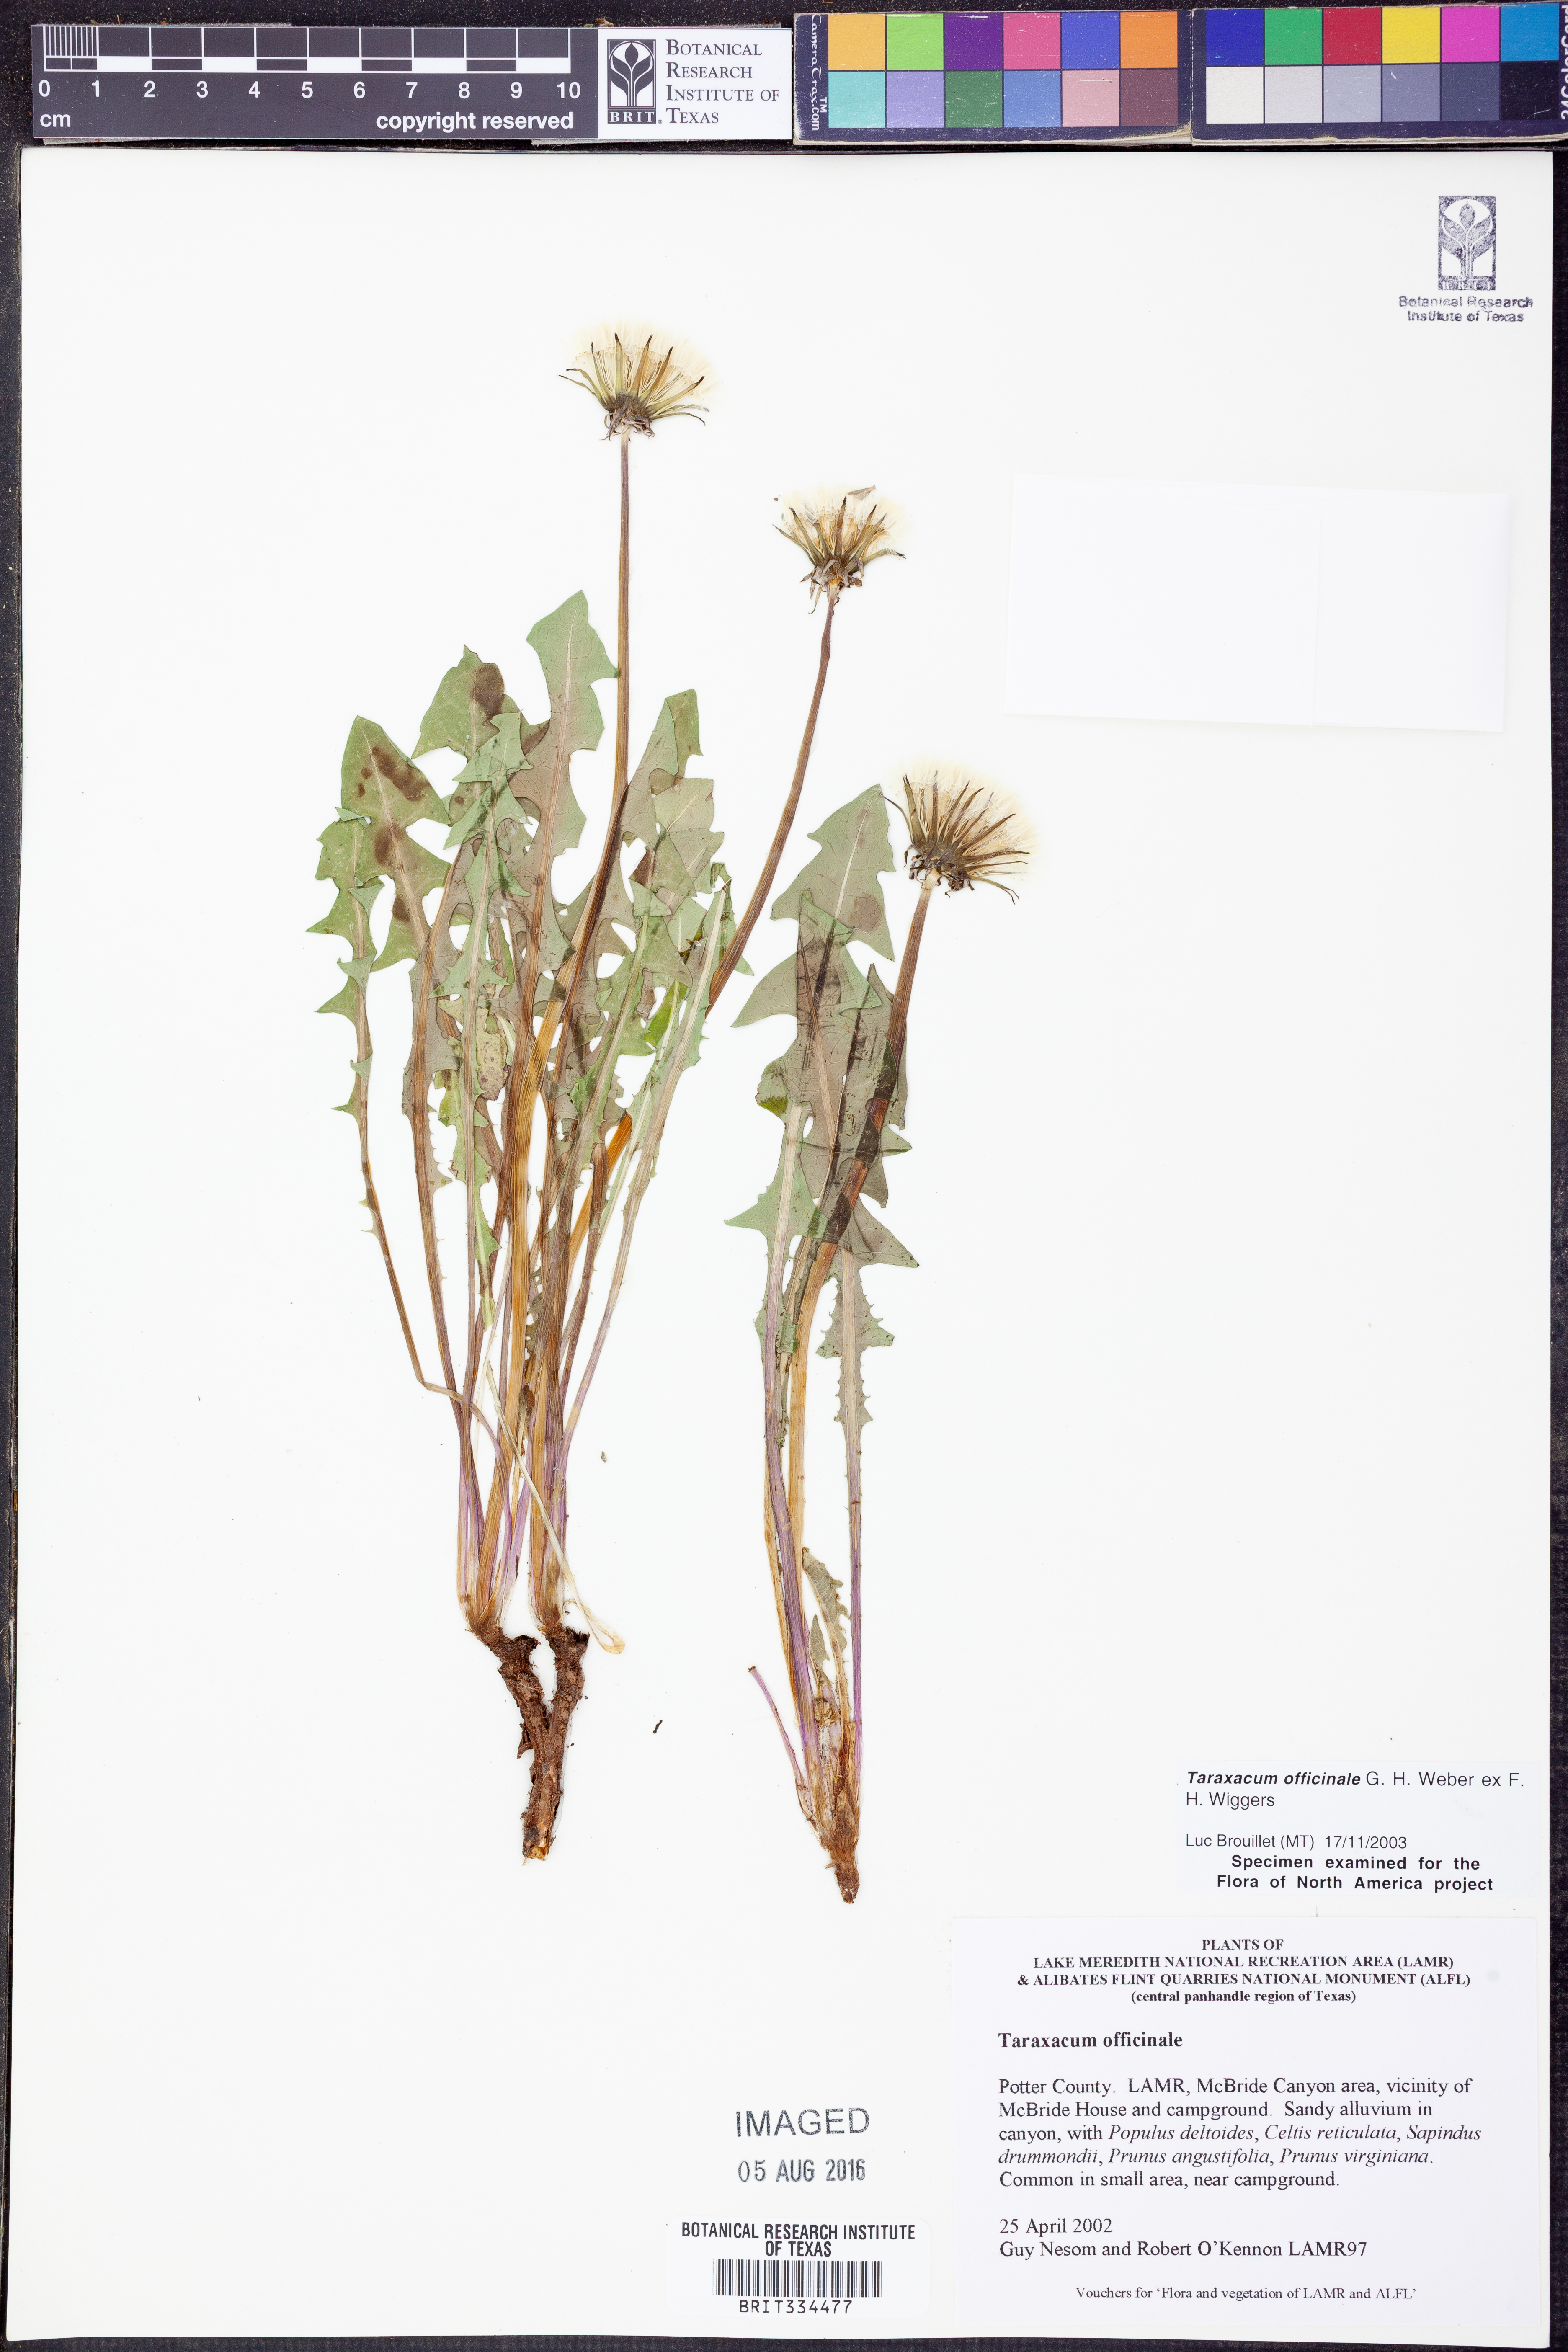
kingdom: Plantae
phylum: Tracheophyta
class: Magnoliopsida
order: Asterales
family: Asteraceae
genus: Taraxacum
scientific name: Taraxacum officinale
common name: Common dandelion
